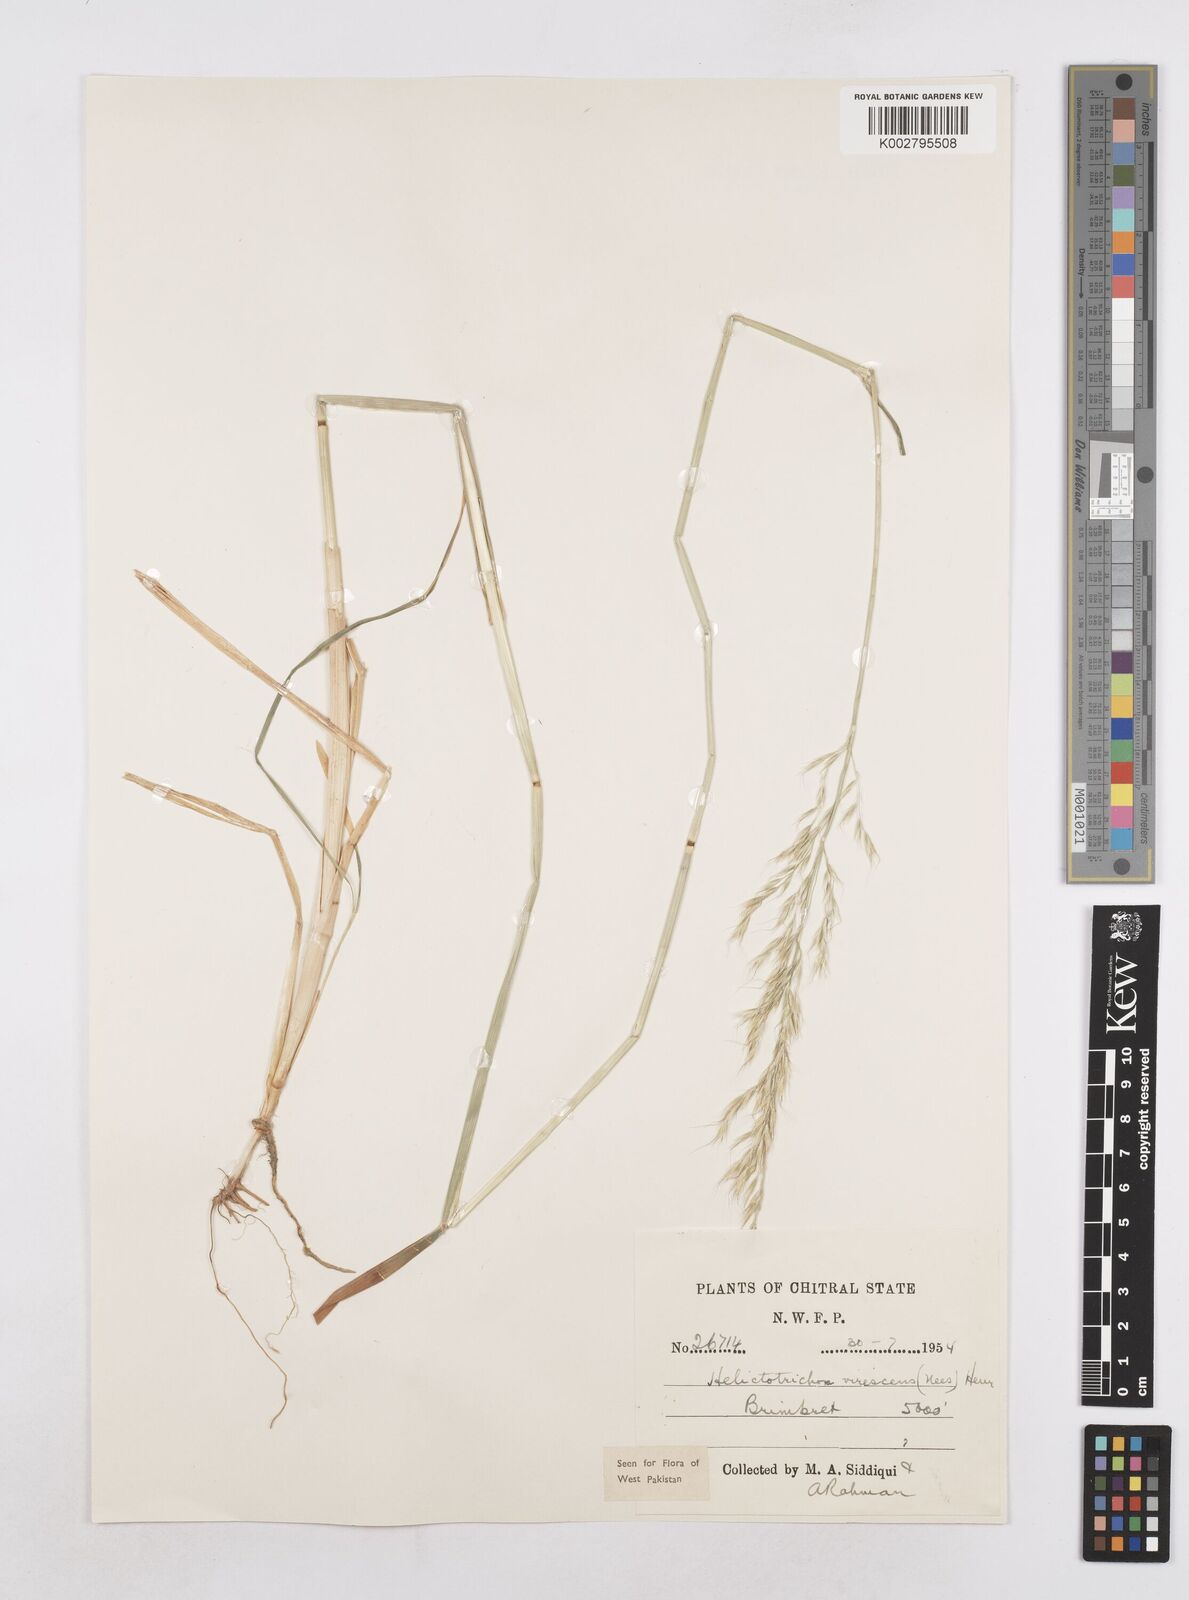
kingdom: Plantae
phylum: Tracheophyta
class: Liliopsida
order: Poales
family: Poaceae
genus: Trisetopsis
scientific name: Trisetopsis junghuhnii
